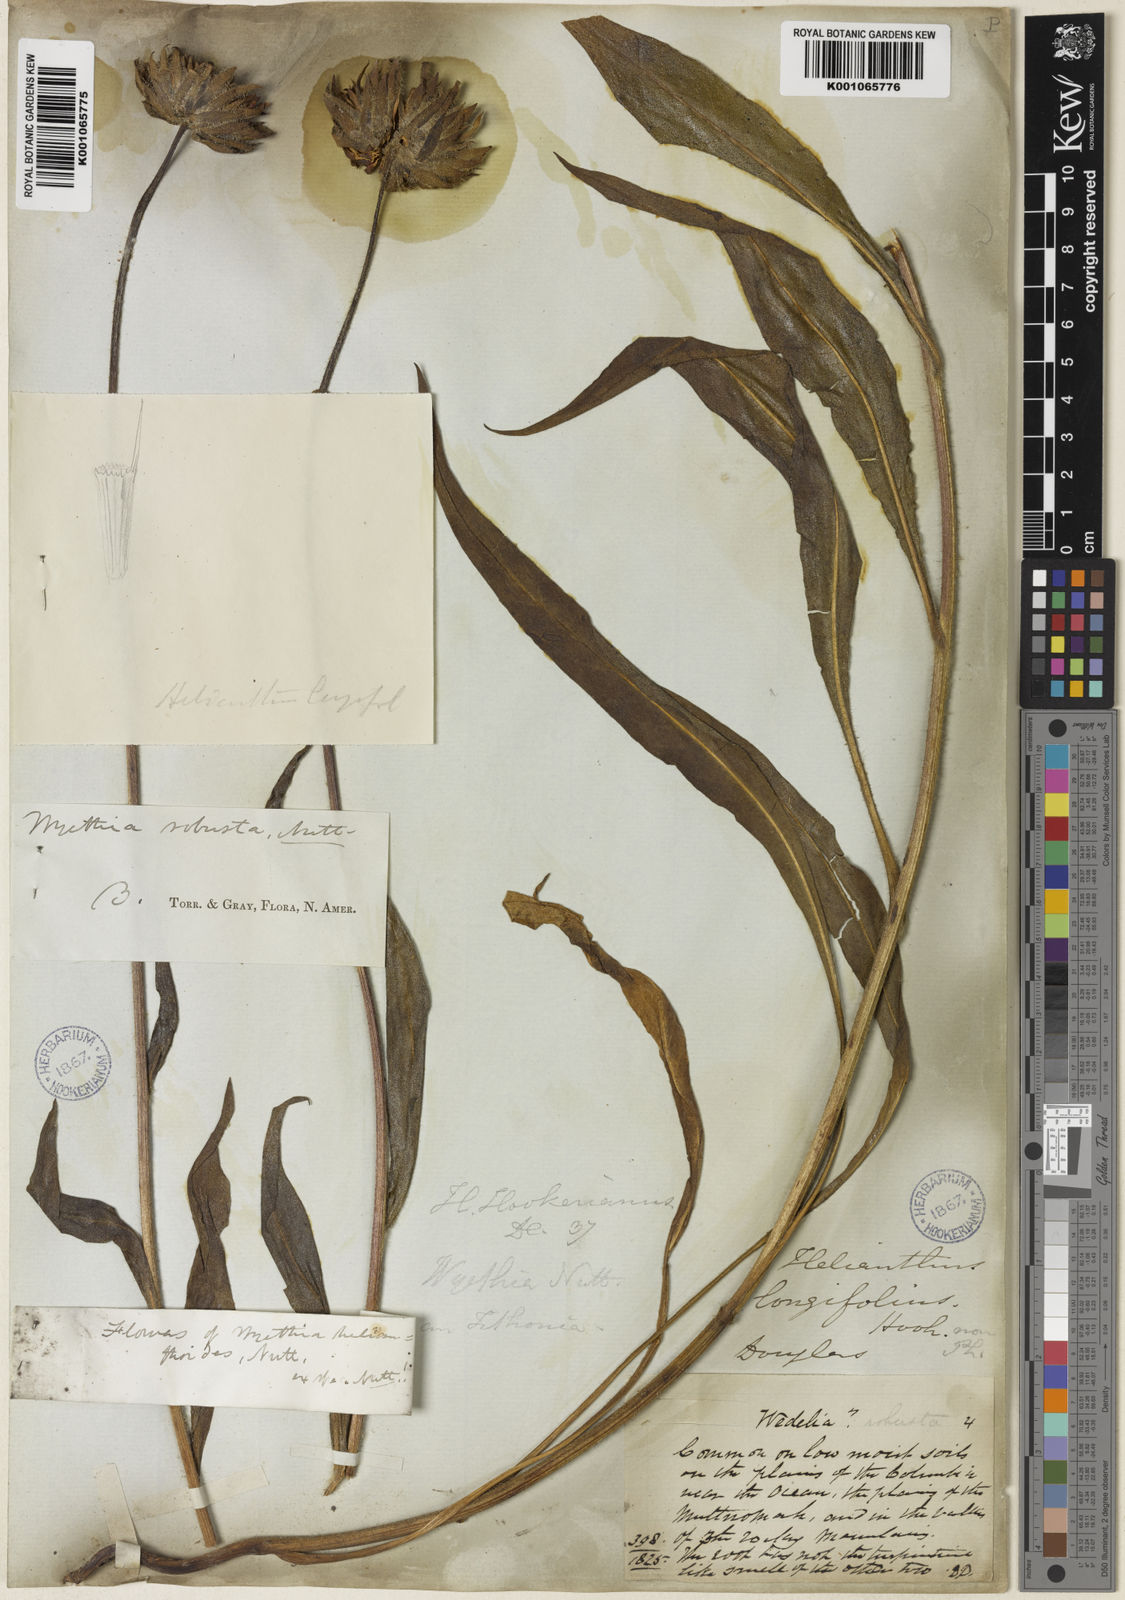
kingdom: Plantae
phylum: Tracheophyta
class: Magnoliopsida
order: Asterales
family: Asteraceae
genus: Wyethia
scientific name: Wyethia angustifolia
